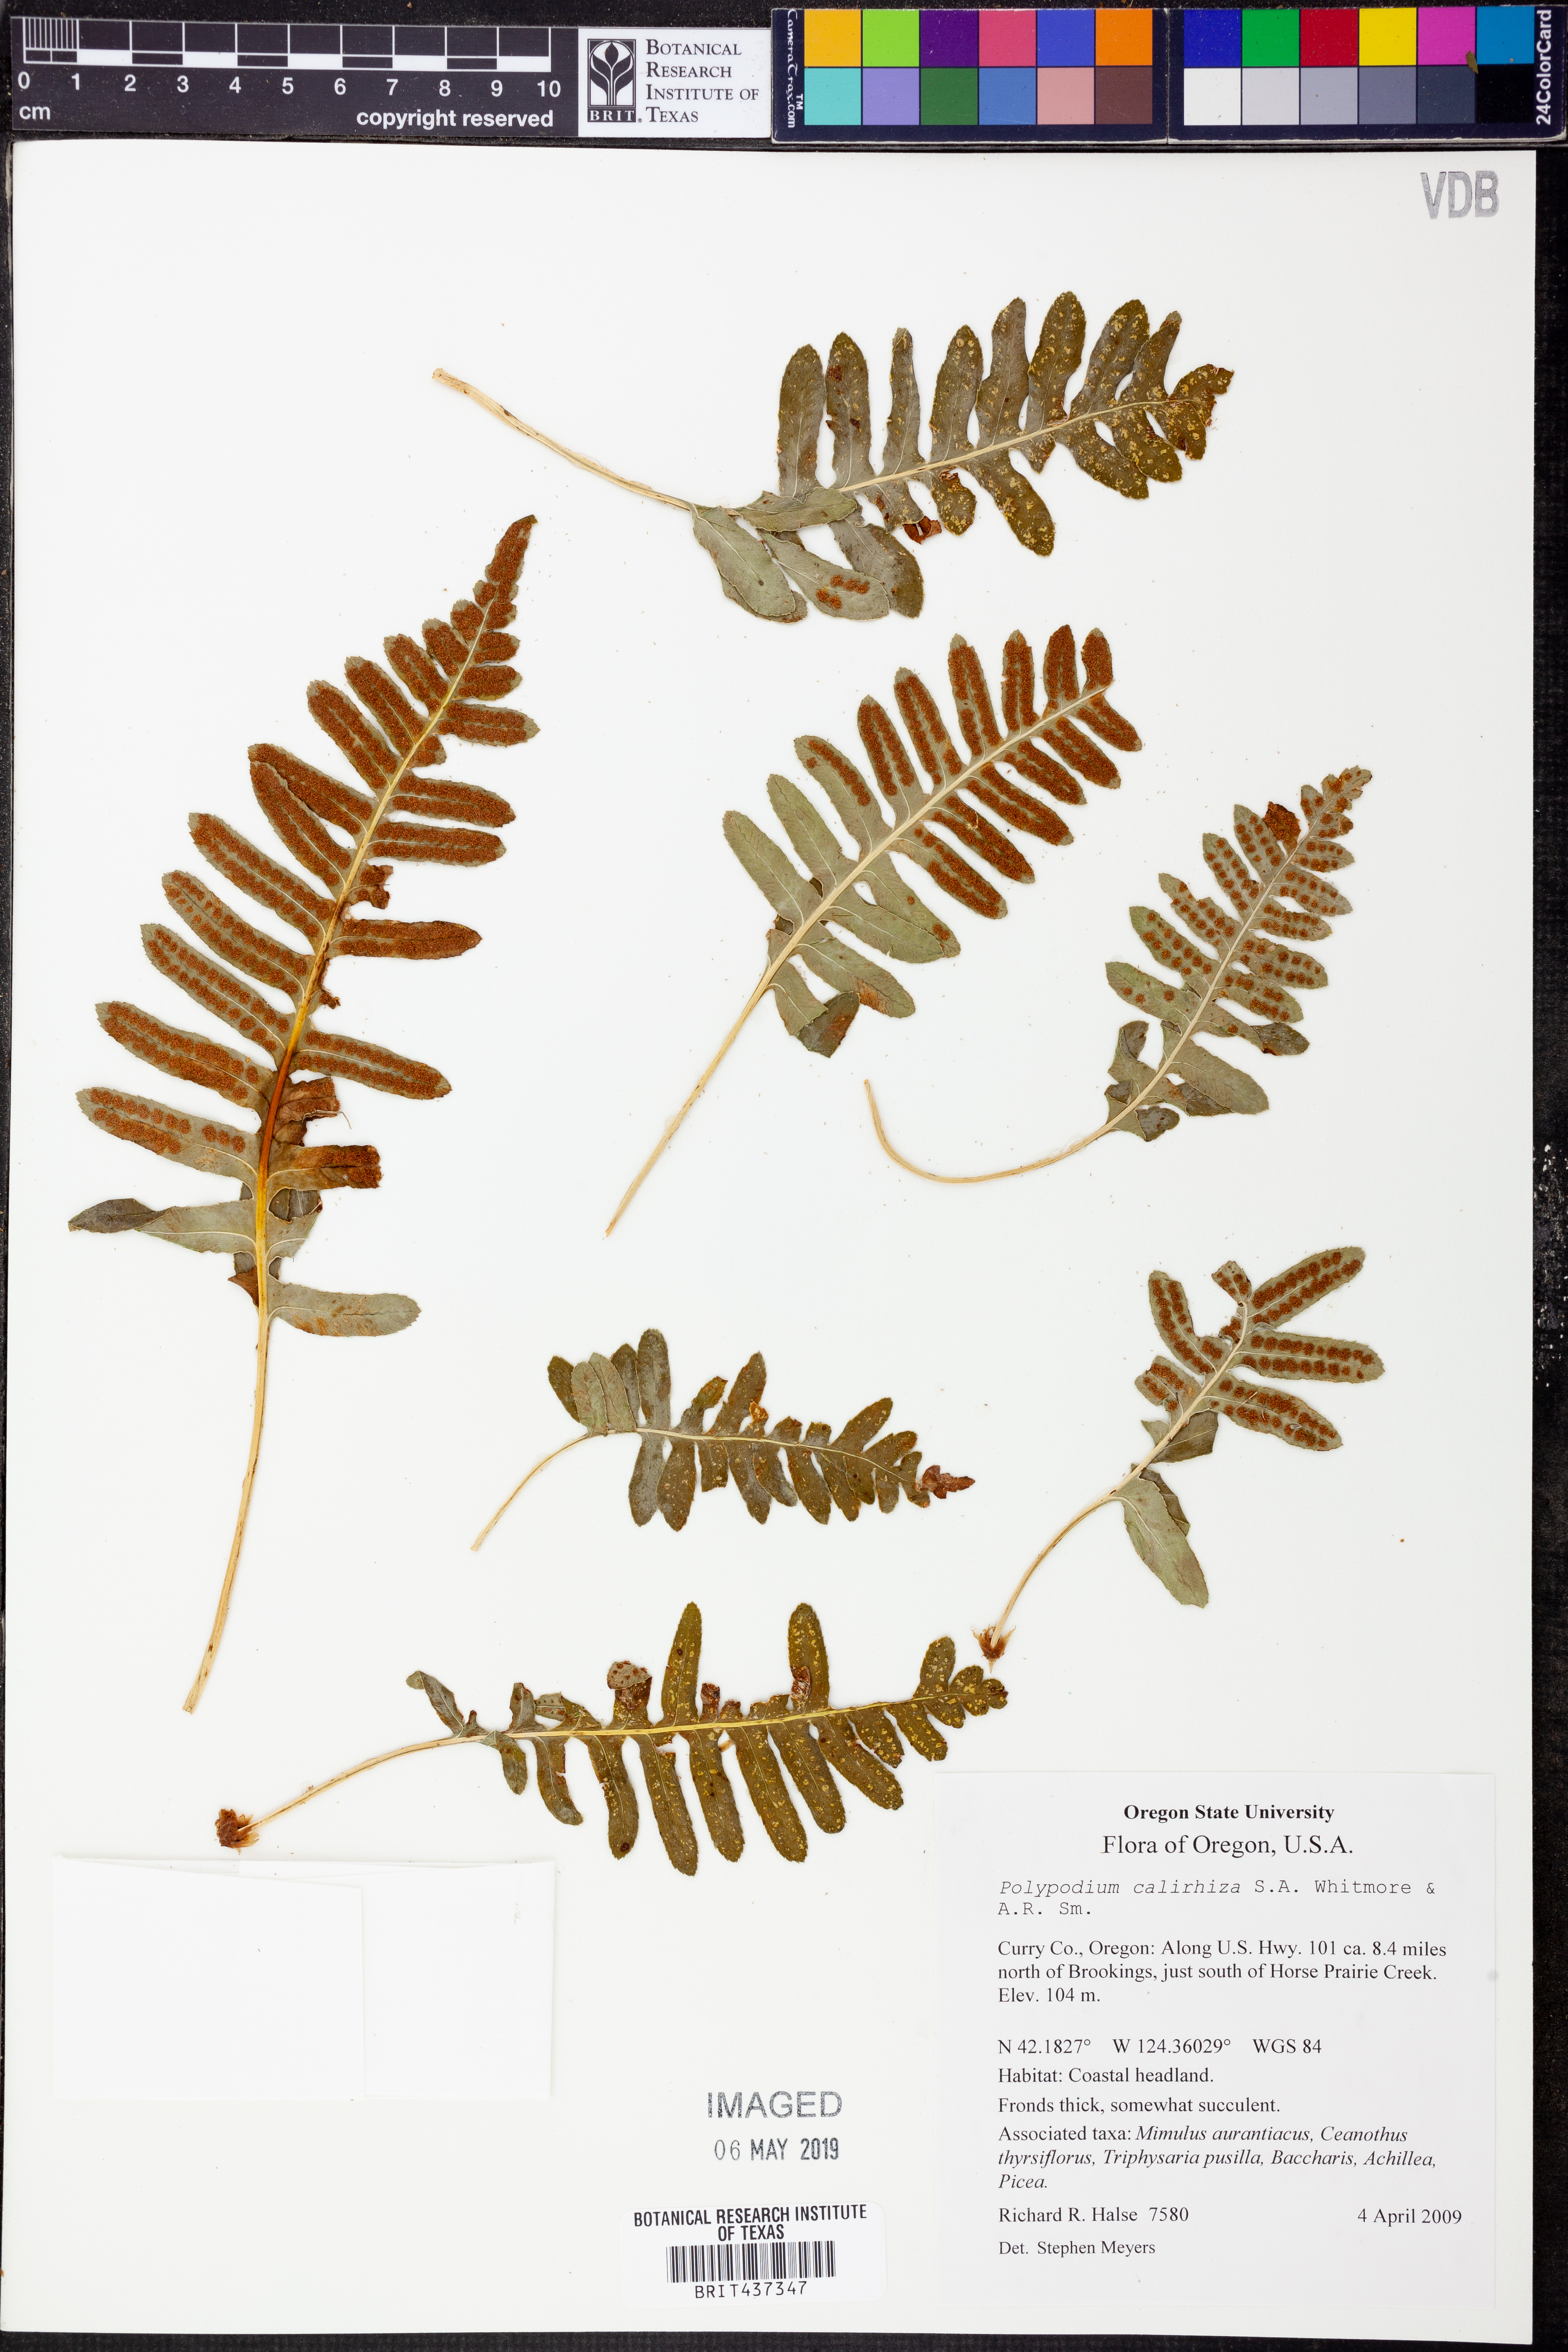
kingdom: Plantae
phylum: Tracheophyta
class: Polypodiopsida
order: Polypodiales
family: Polypodiaceae
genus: Polypodium
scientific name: Polypodium calirhiza
